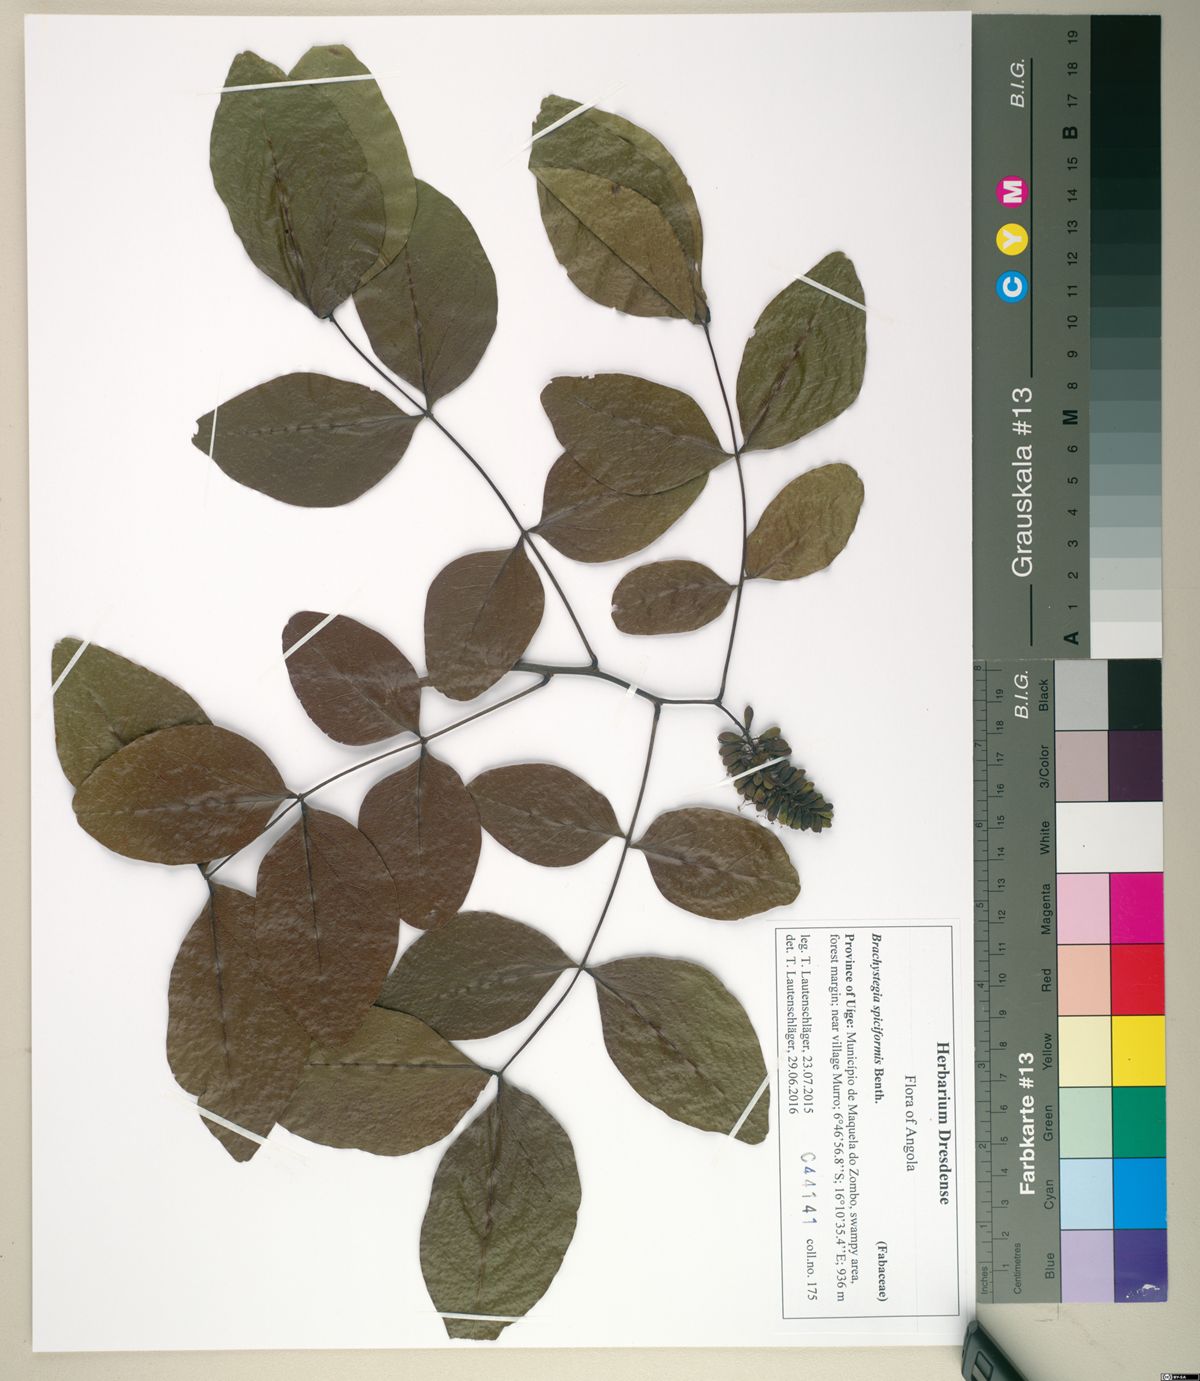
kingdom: Plantae
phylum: Tracheophyta
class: Magnoliopsida
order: Fabales
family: Fabaceae
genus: Brachystegia
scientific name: Brachystegia spiciformis
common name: Zebrawood
